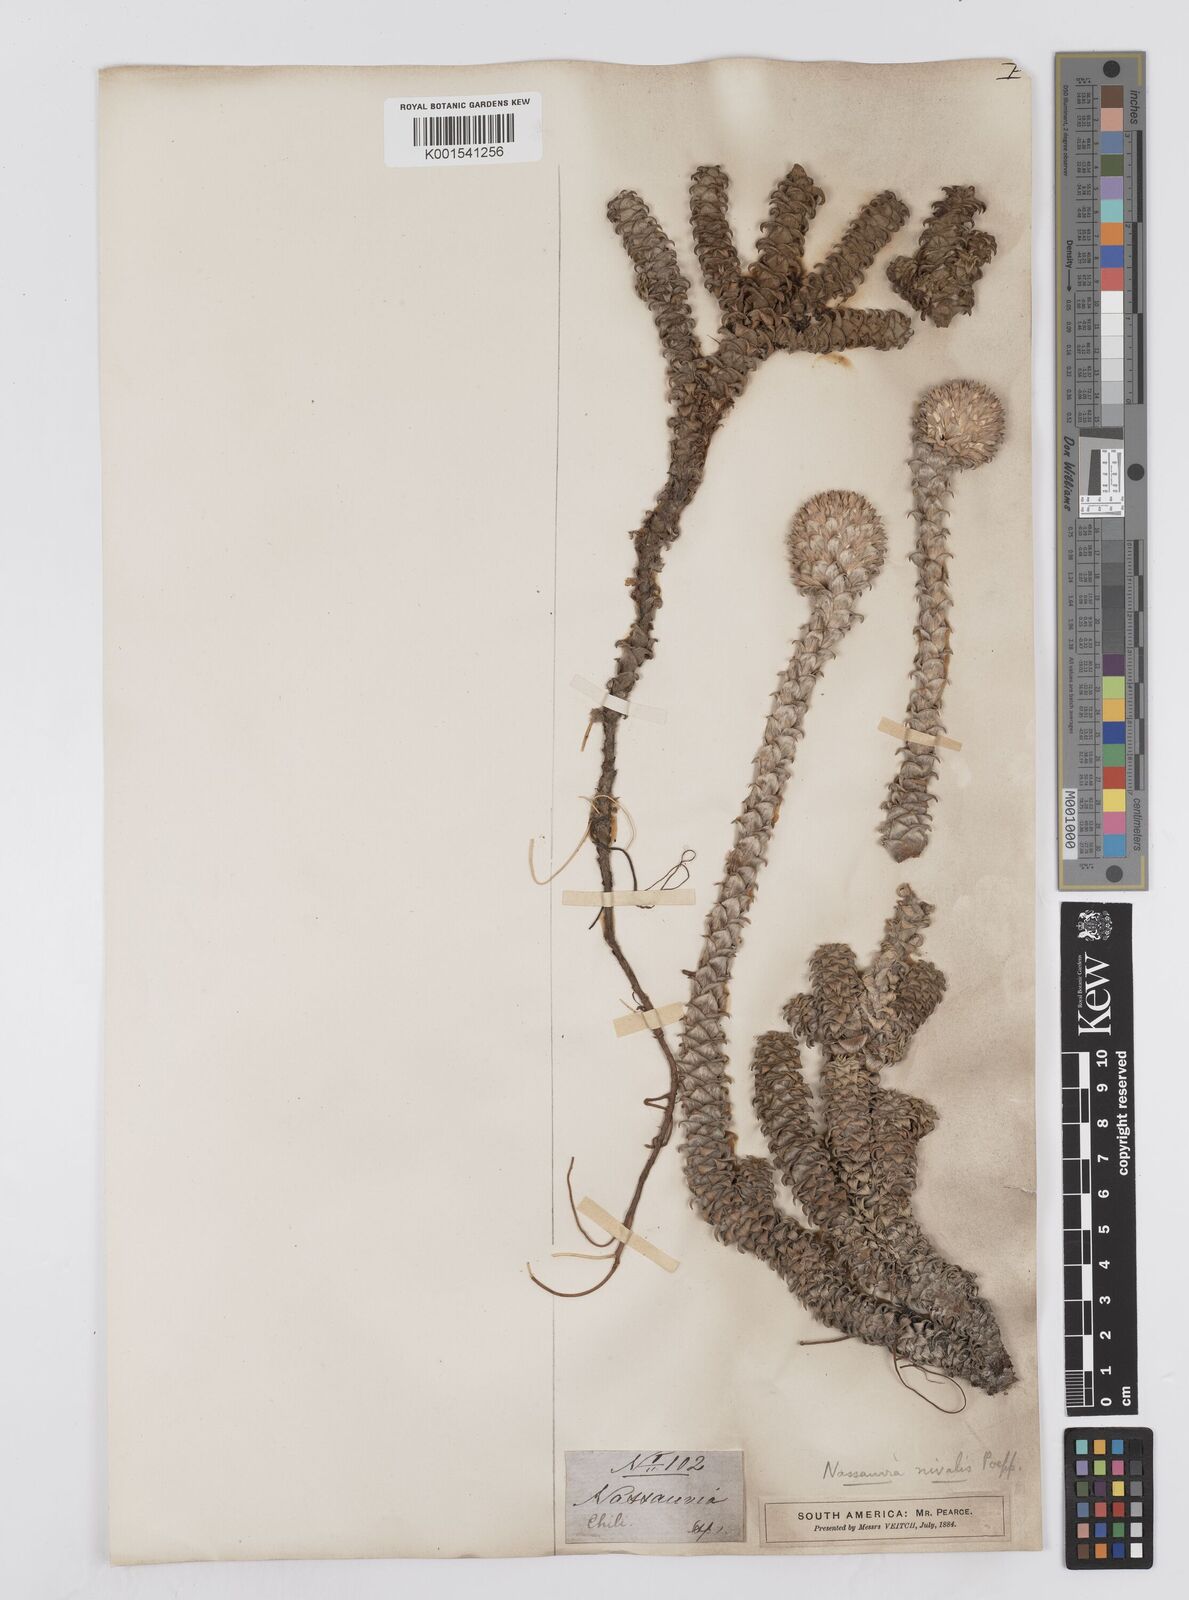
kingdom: Plantae
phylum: Tracheophyta
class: Magnoliopsida
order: Asterales
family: Asteraceae
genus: Nassauvia
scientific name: Nassauvia revoluta
